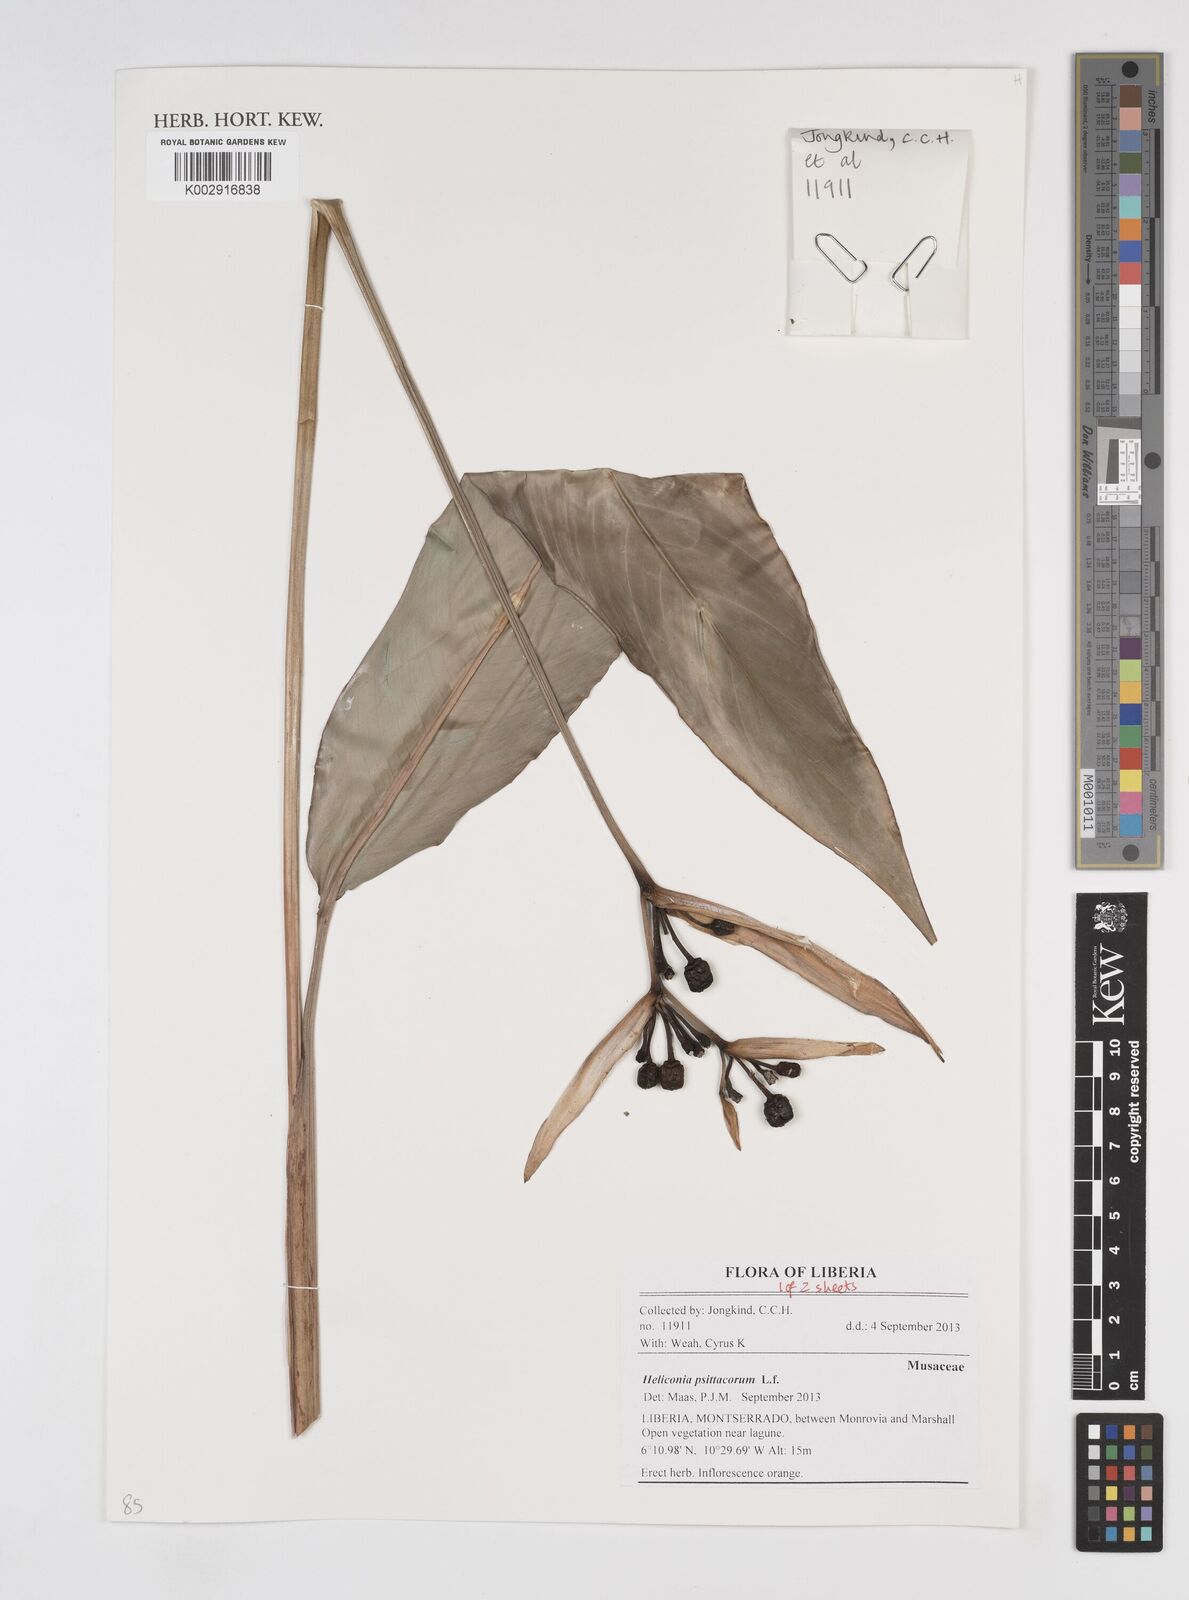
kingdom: Plantae
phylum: Tracheophyta
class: Liliopsida
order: Zingiberales
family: Heliconiaceae
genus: Heliconia
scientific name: Heliconia psittacorum
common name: Parrot's-flower
